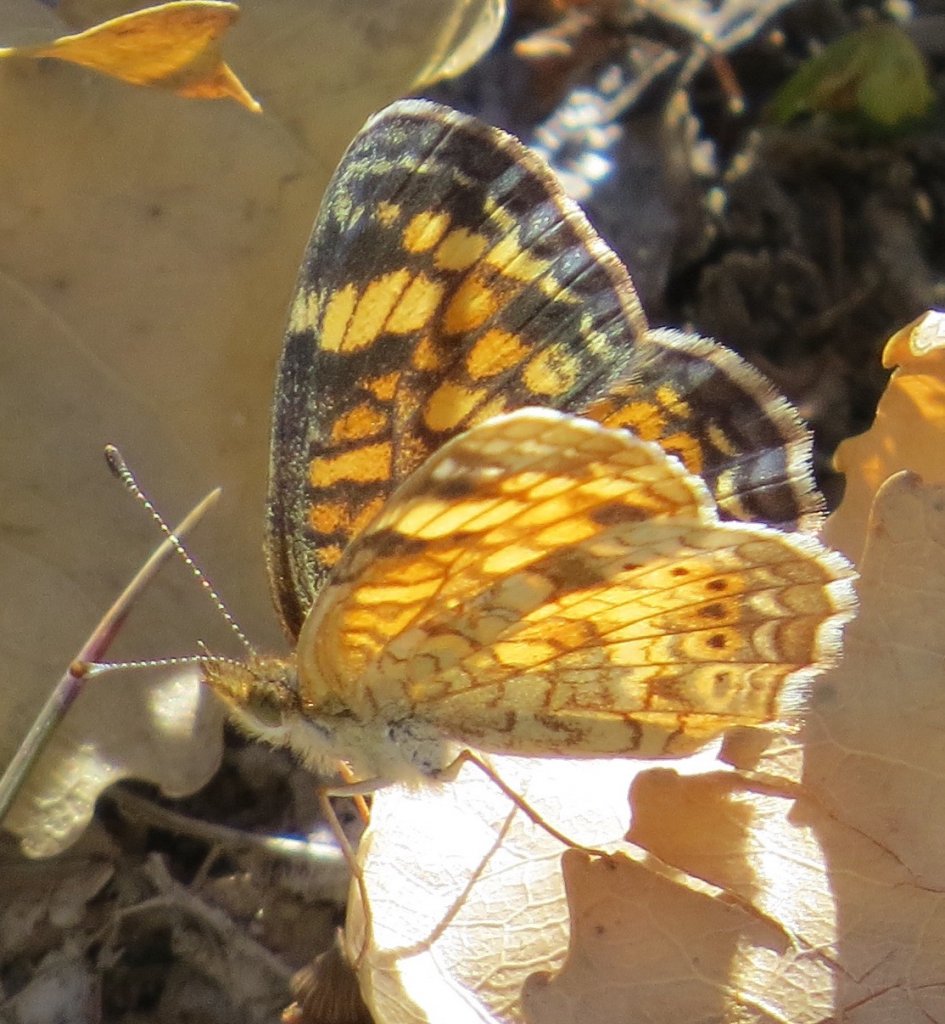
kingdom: Animalia
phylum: Arthropoda
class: Insecta
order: Lepidoptera
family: Nymphalidae
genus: Phyciodes
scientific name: Phyciodes tharos
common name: Pearl Crescent
